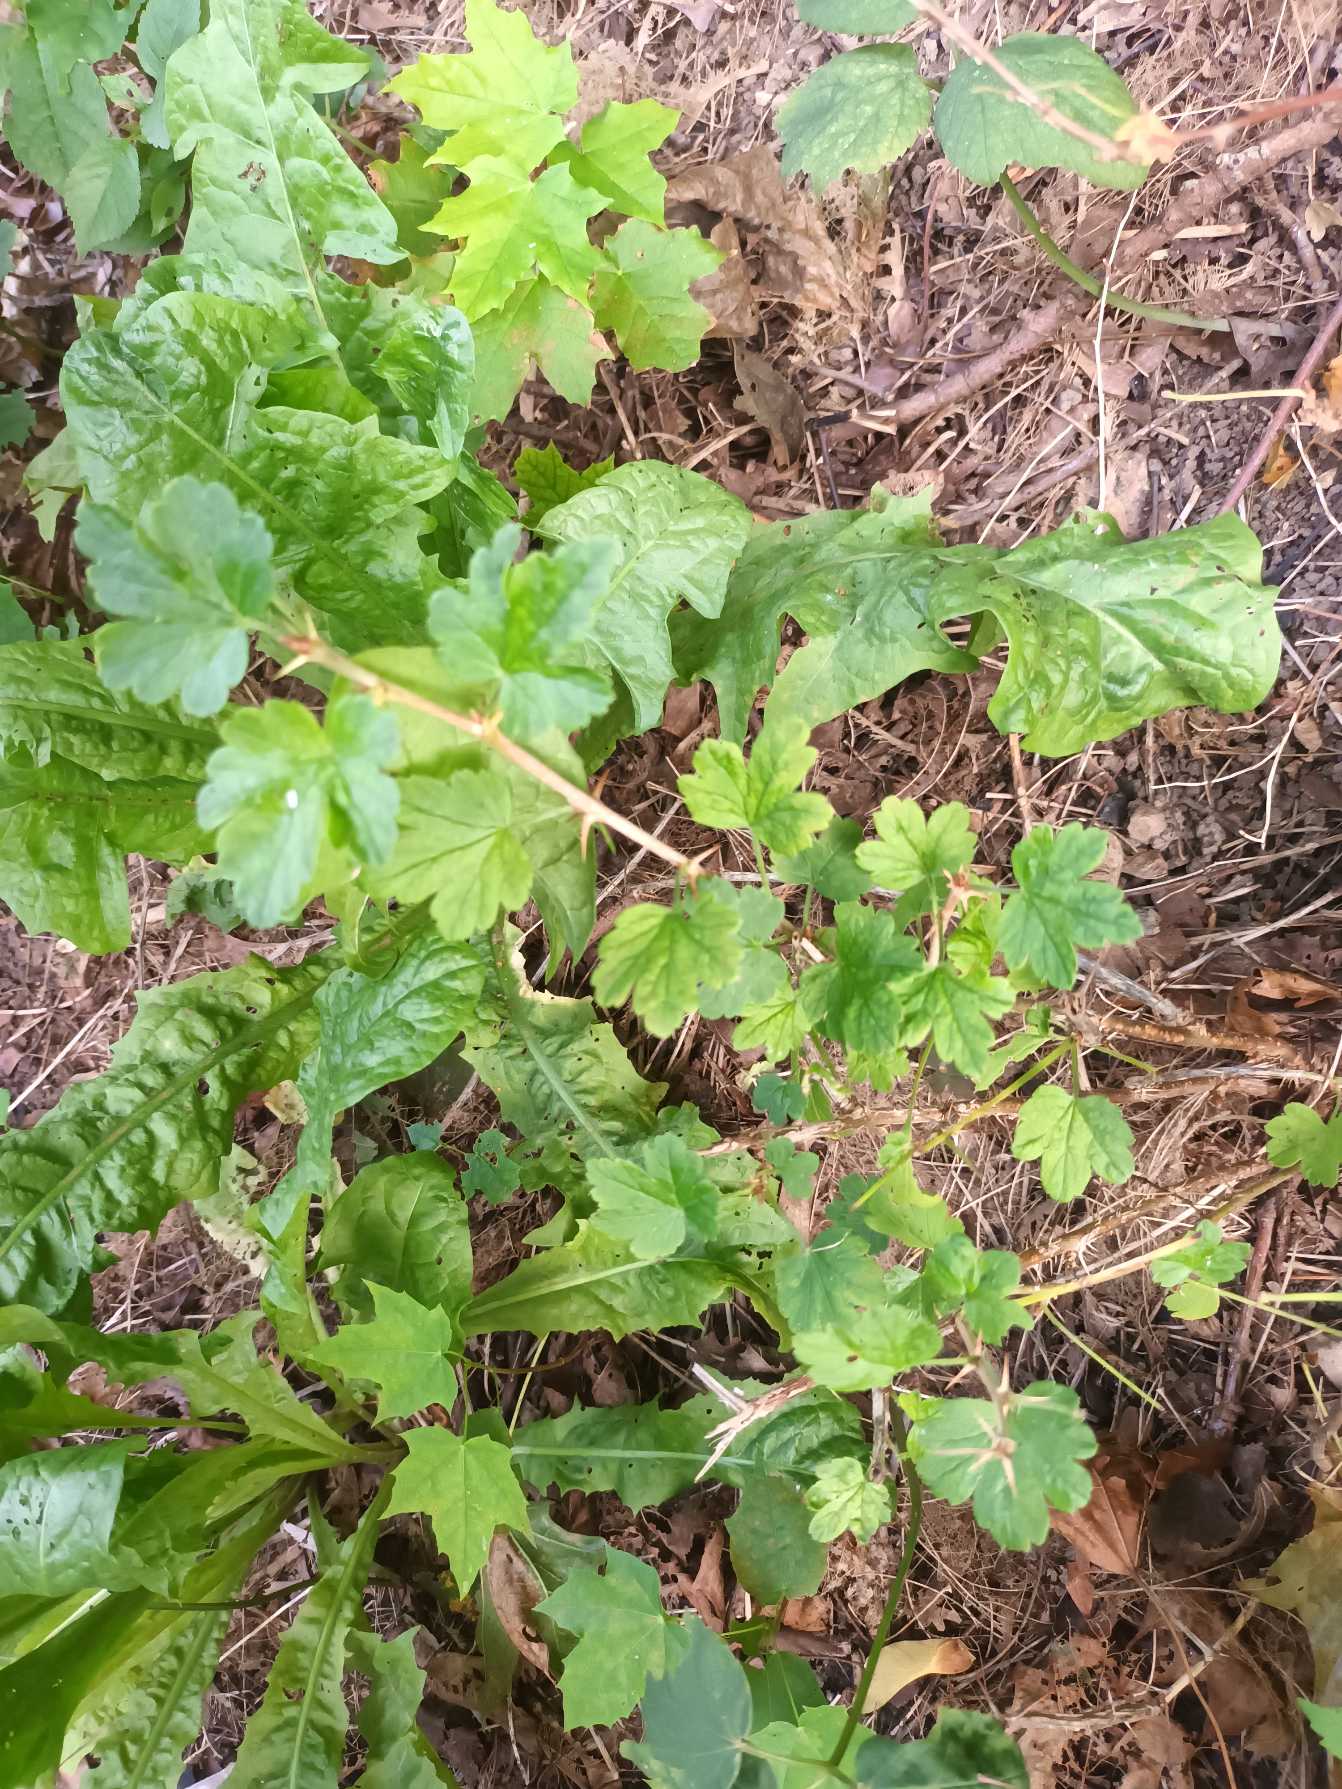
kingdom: Plantae
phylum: Tracheophyta
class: Magnoliopsida
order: Saxifragales
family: Grossulariaceae
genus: Ribes
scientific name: Ribes uva-crispa
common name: Stikkelsbær
